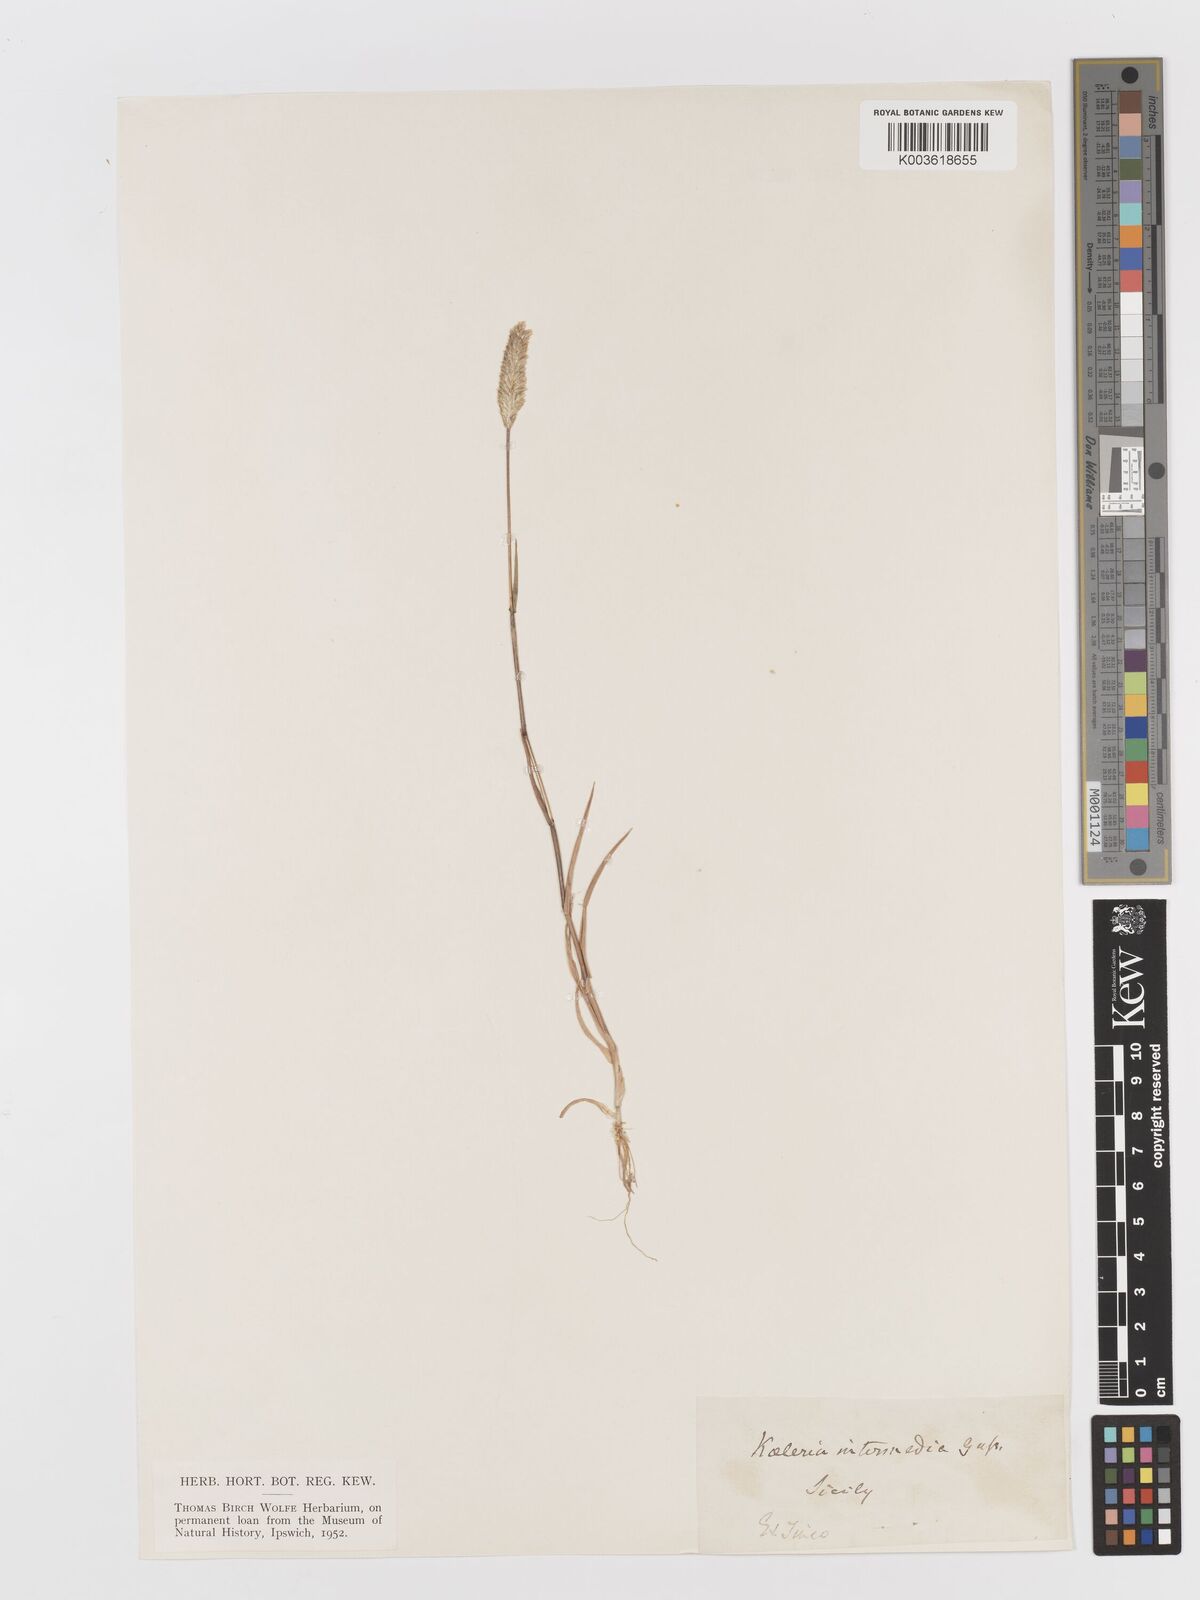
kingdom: Plantae
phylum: Tracheophyta
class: Liliopsida
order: Poales
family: Poaceae
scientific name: Poaceae
